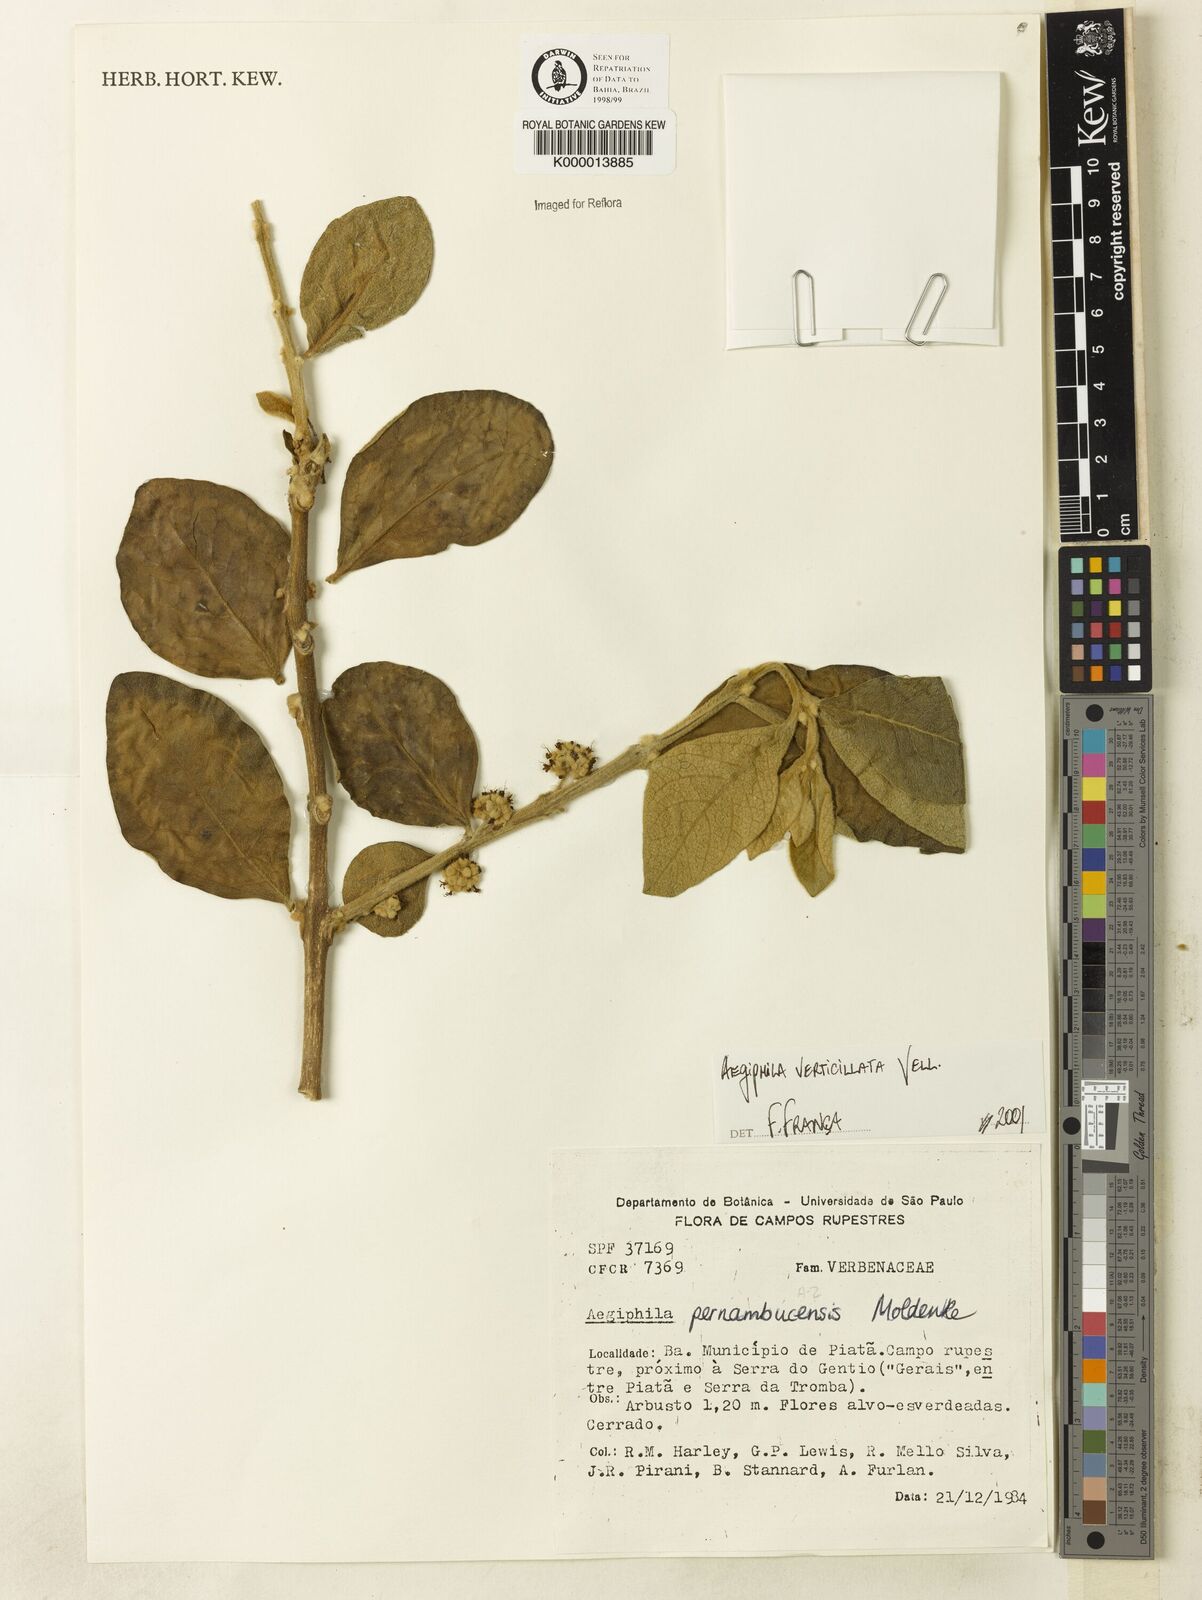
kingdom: Plantae
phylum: Tracheophyta
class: Magnoliopsida
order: Lamiales
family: Lamiaceae
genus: Aegiphila
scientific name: Aegiphila pernambucensis
